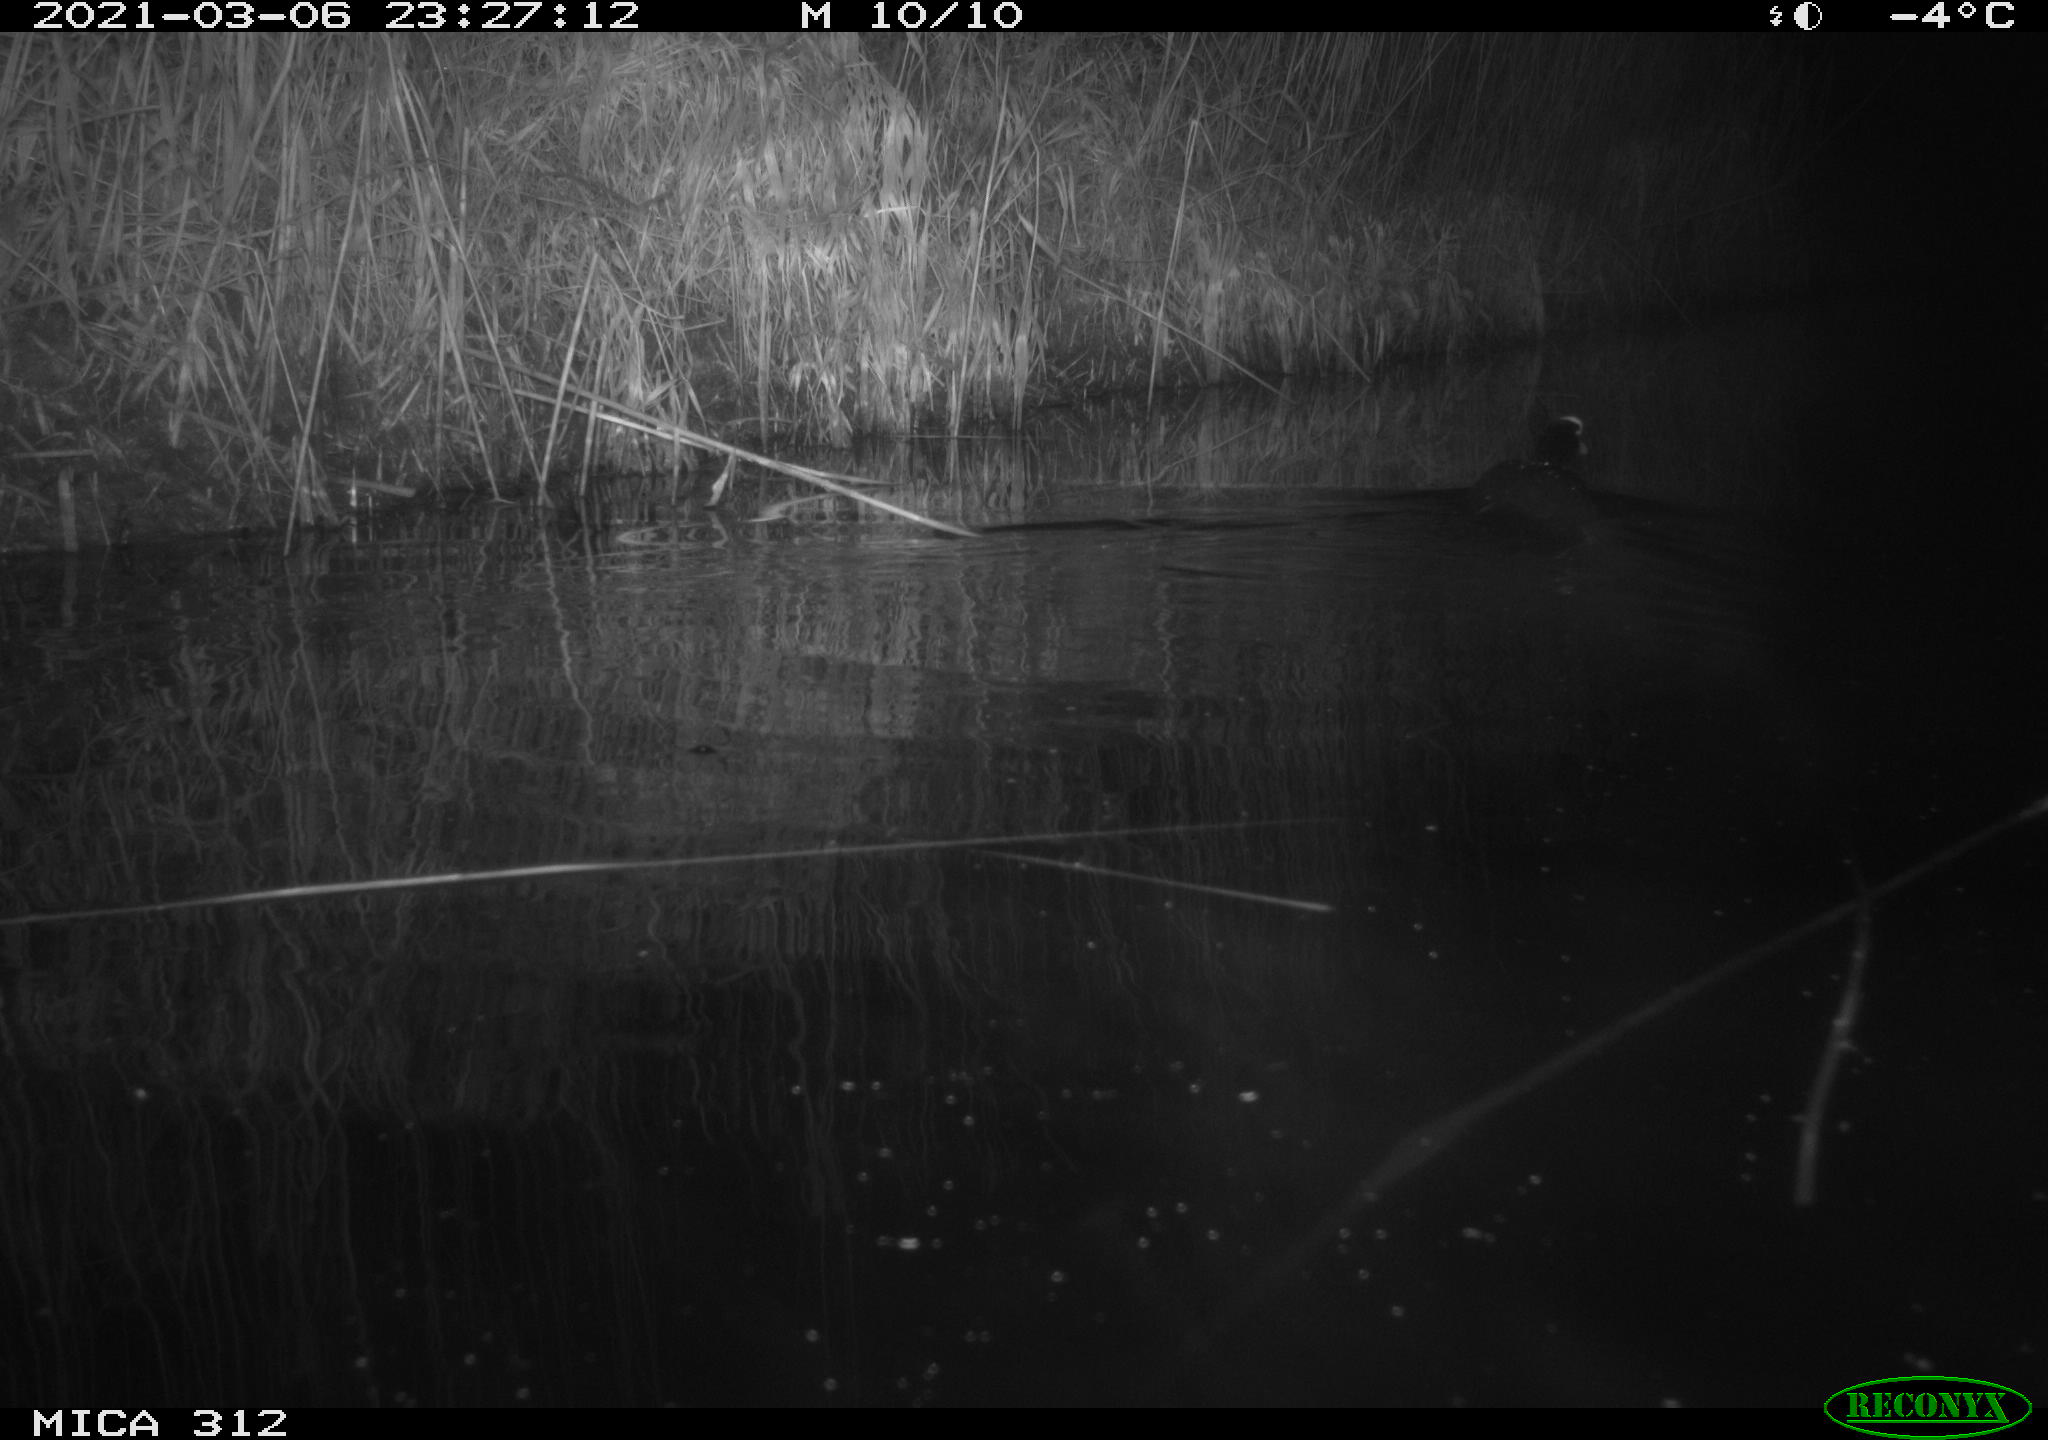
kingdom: Animalia
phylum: Chordata
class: Aves
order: Gruiformes
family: Rallidae
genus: Fulica
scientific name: Fulica atra
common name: Eurasian coot
